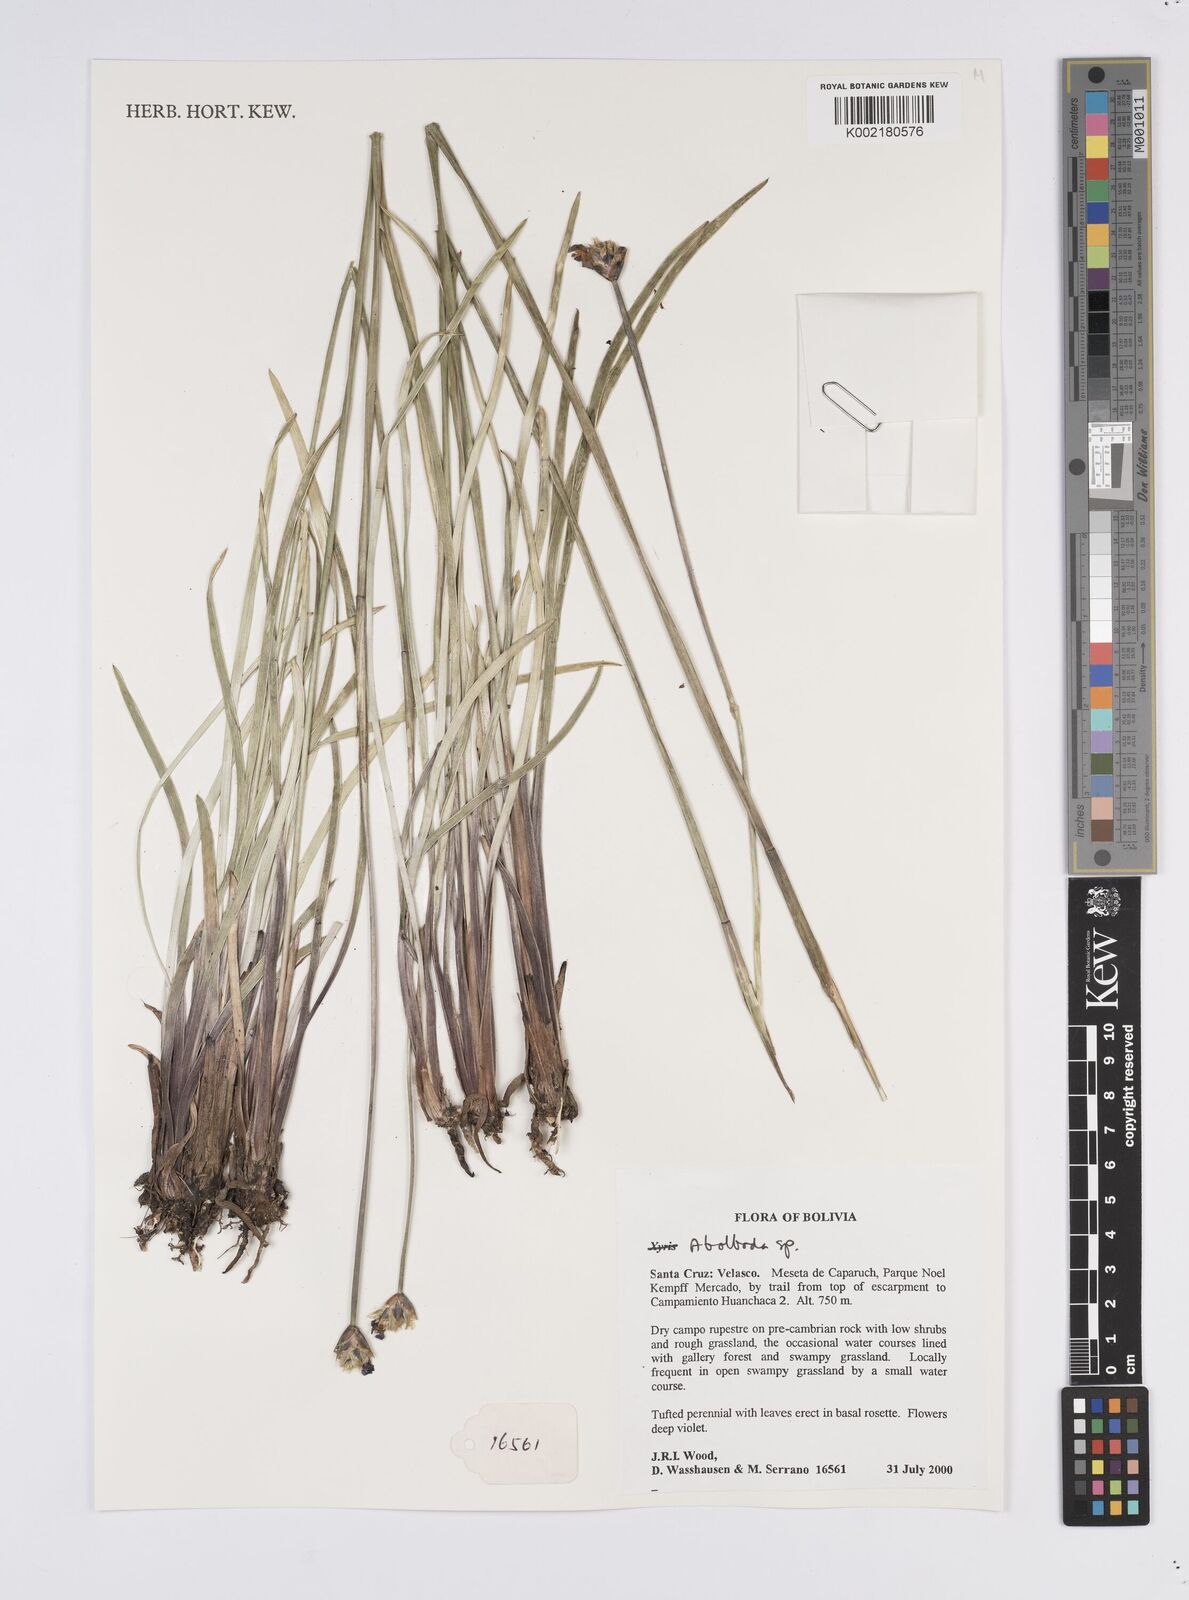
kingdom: Plantae
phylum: Tracheophyta
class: Liliopsida
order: Poales
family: Xyridaceae
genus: Abolboda
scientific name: Abolboda
